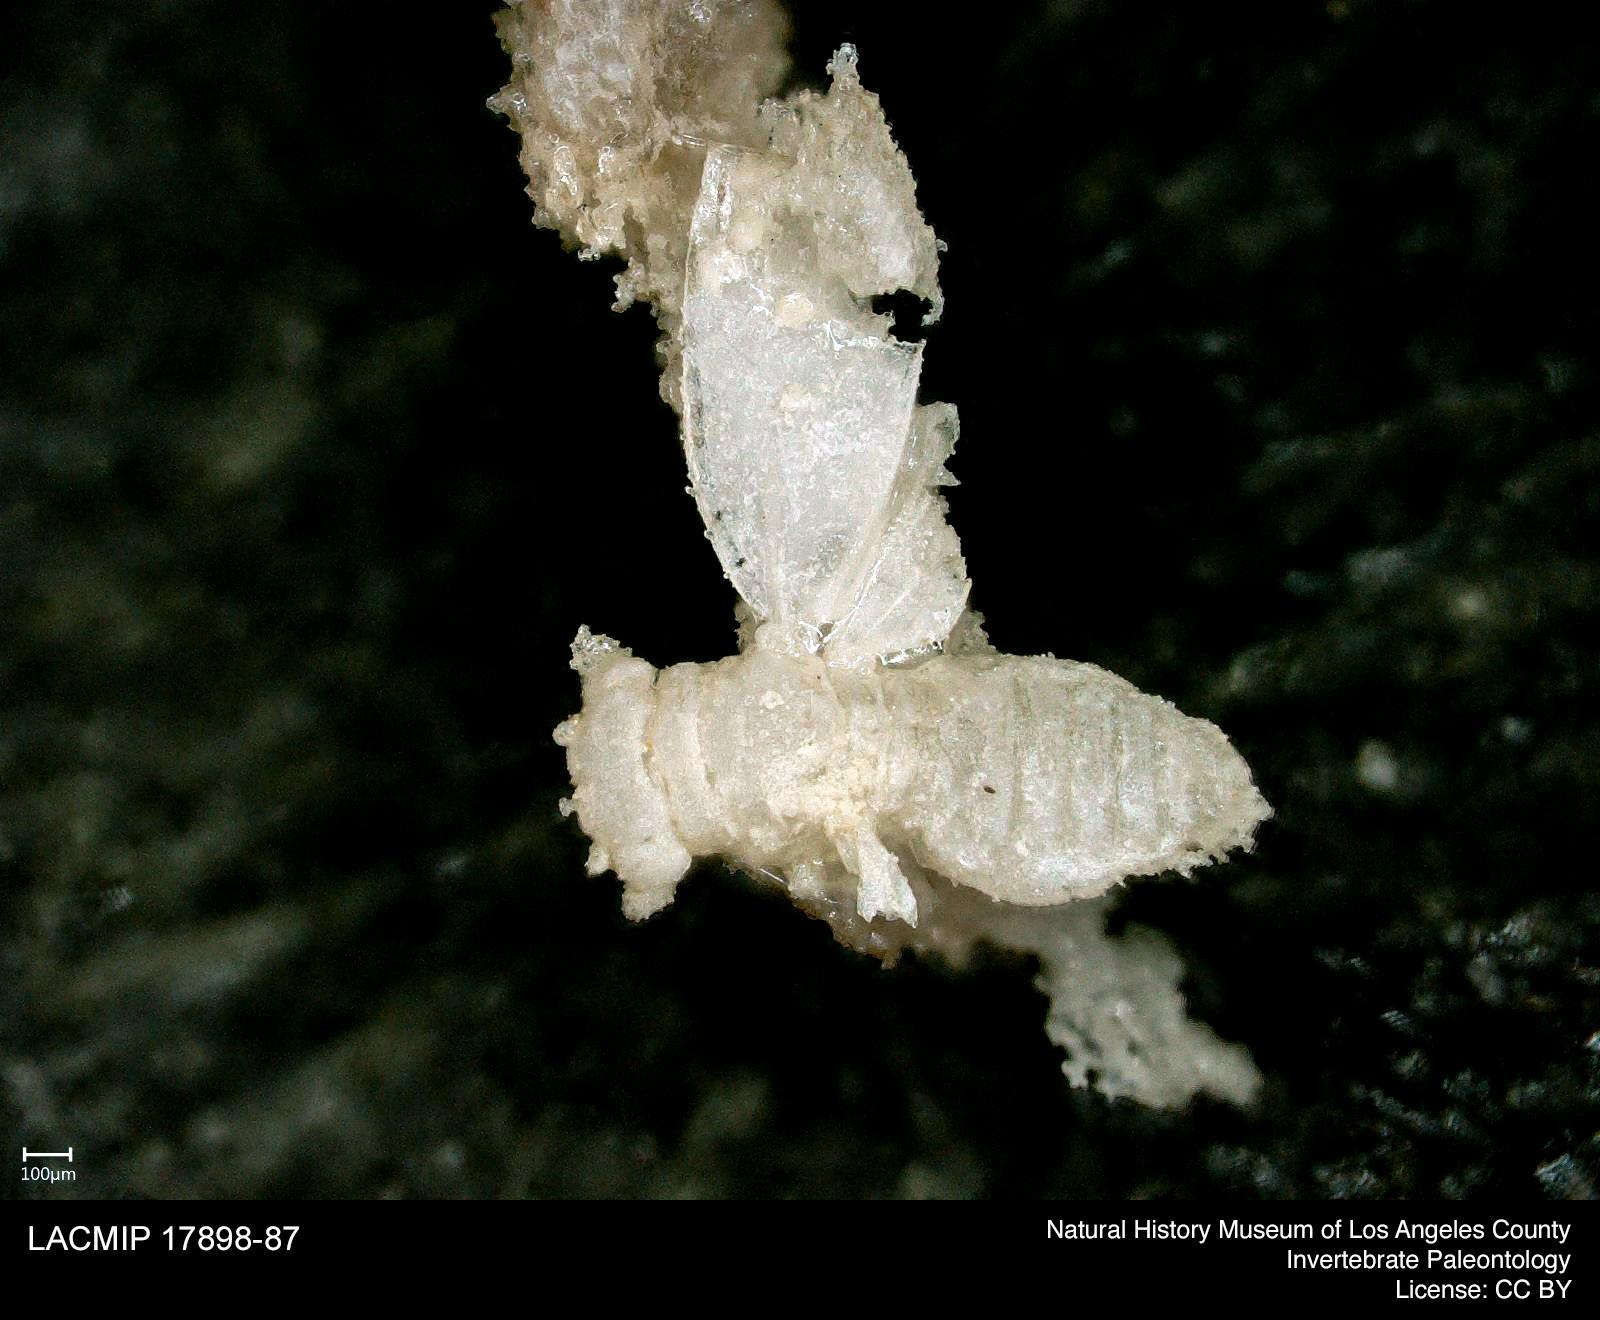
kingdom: Animalia
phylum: Arthropoda
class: Insecta
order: Hemiptera
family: Psyllidae
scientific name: Psyllidae
